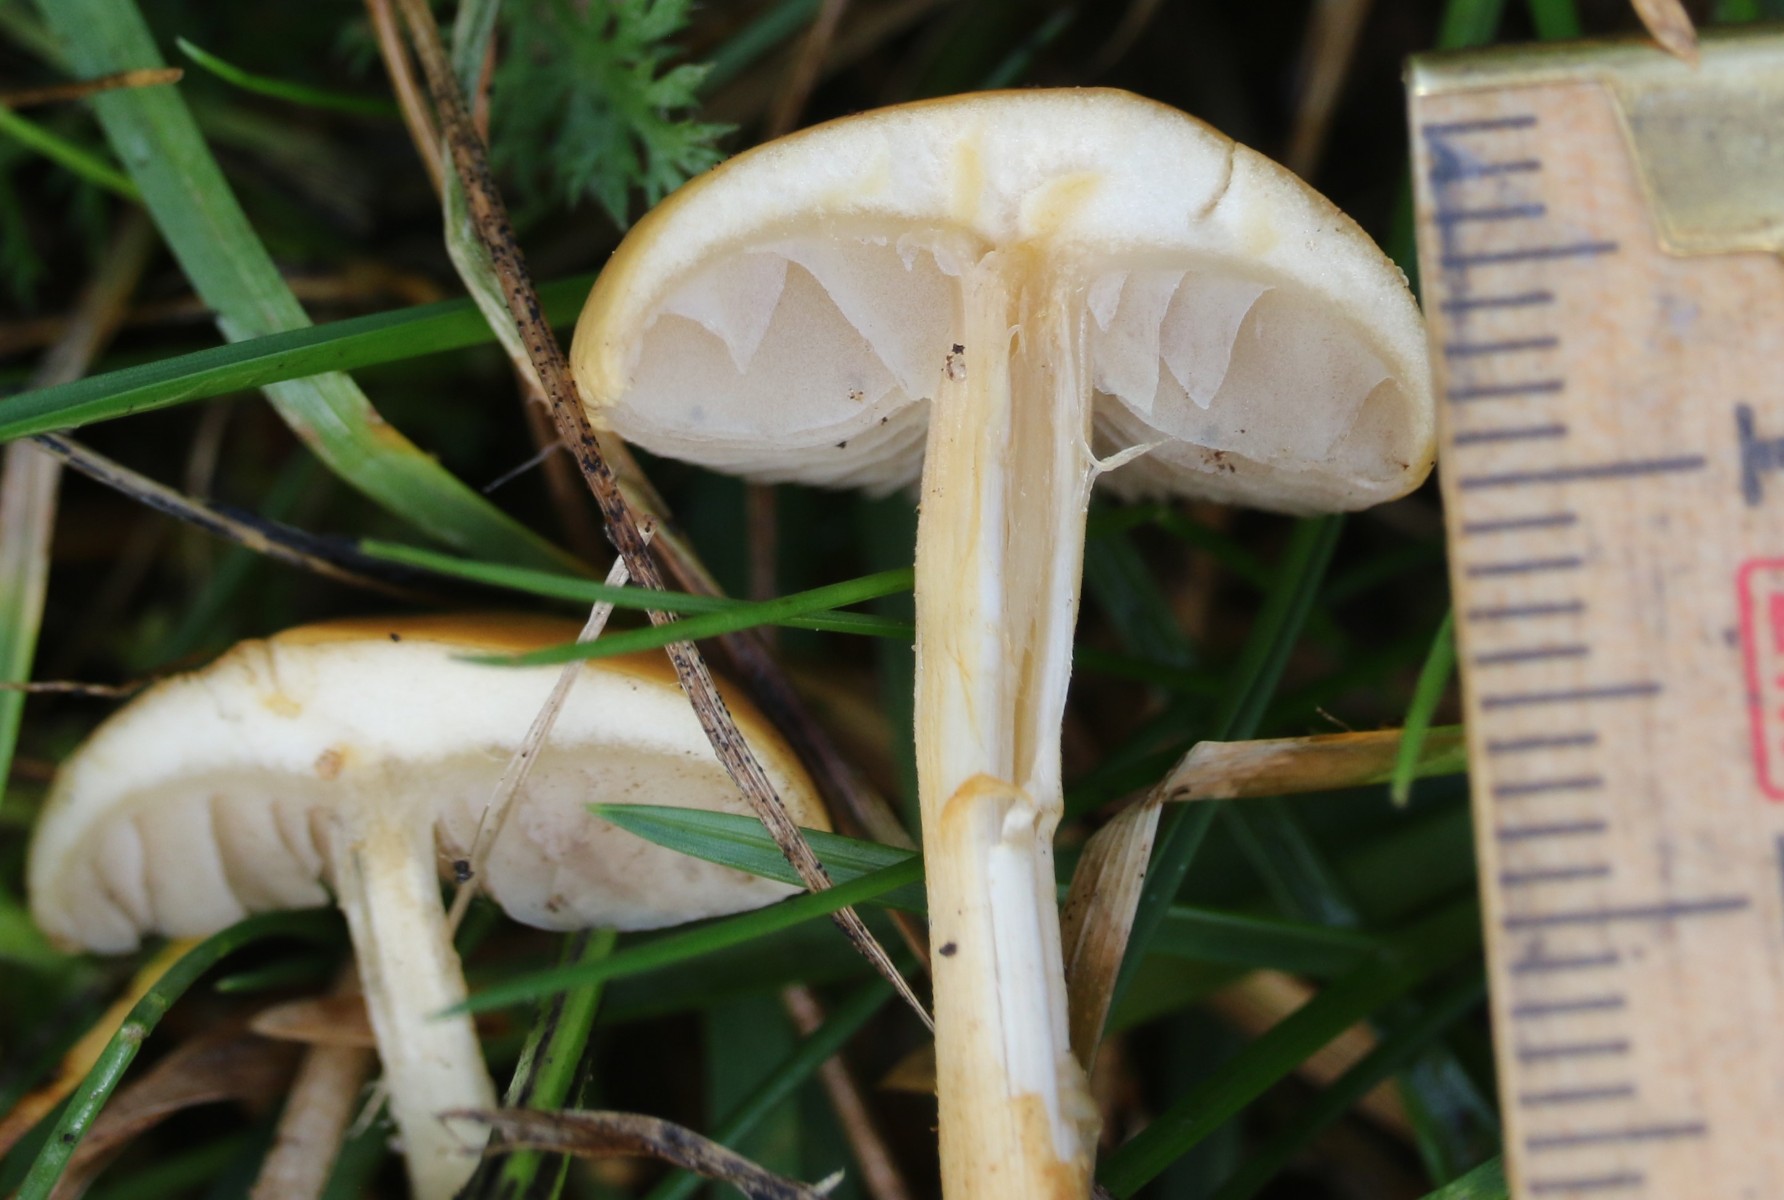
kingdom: Fungi
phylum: Basidiomycota
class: Agaricomycetes
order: Agaricales
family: Strophariaceae
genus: Agrocybe
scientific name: Agrocybe
